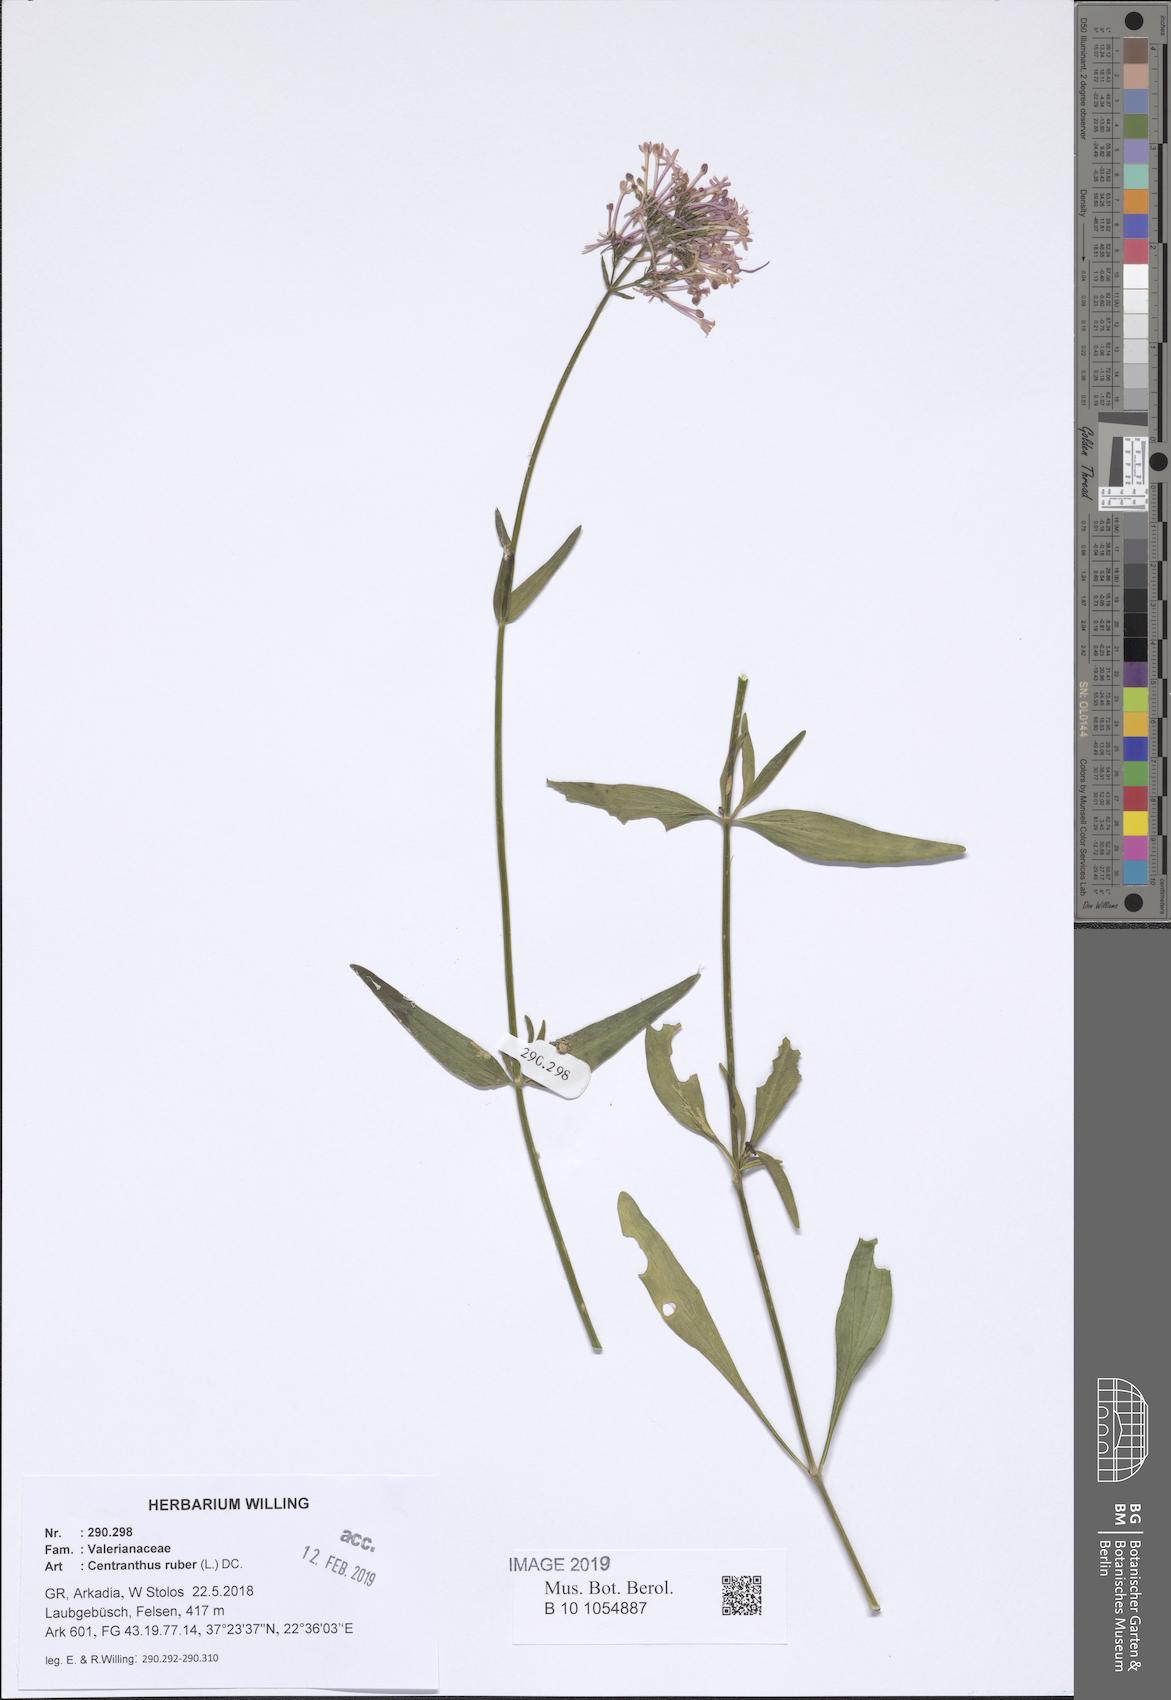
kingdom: Plantae
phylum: Tracheophyta
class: Magnoliopsida
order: Dipsacales
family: Caprifoliaceae
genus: Centranthus
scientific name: Centranthus ruber
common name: Red valerian
